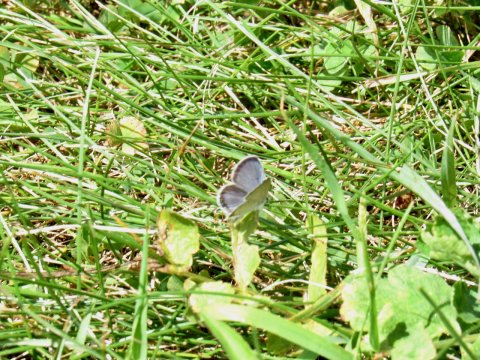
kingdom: Animalia
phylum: Arthropoda
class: Insecta
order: Lepidoptera
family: Lycaenidae
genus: Elkalyce
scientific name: Elkalyce comyntas
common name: Eastern Tailed-Blue
